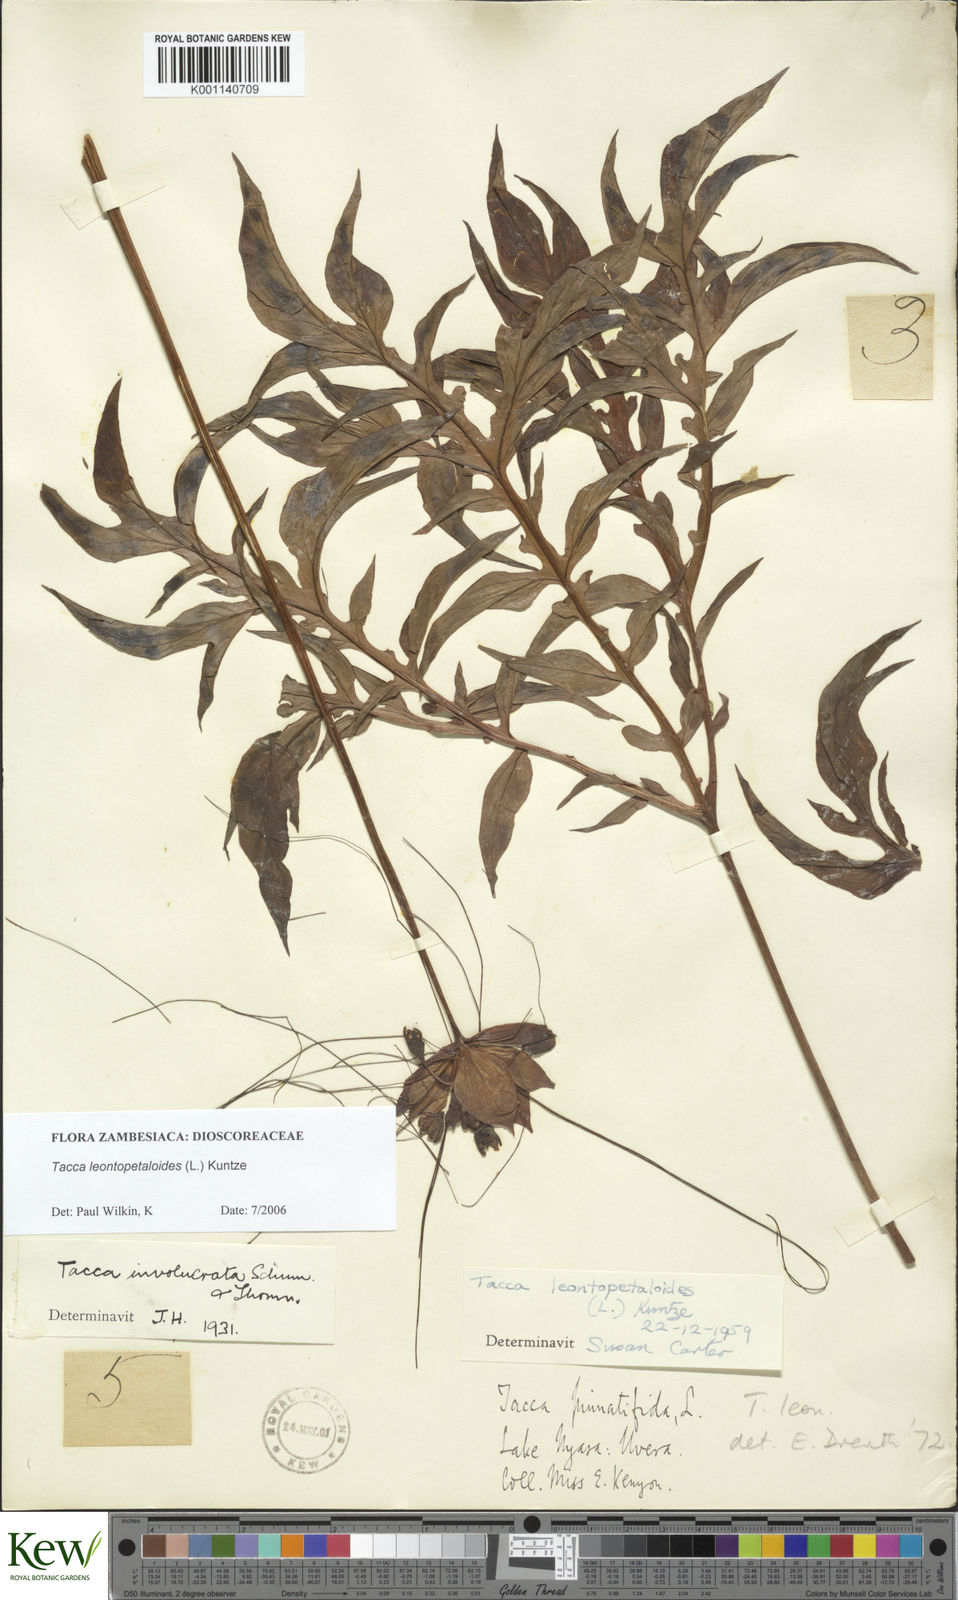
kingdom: Plantae
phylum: Tracheophyta
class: Liliopsida
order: Dioscoreales
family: Dioscoreaceae
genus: Tacca
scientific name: Tacca leontopetaloides
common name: Arrowroot
